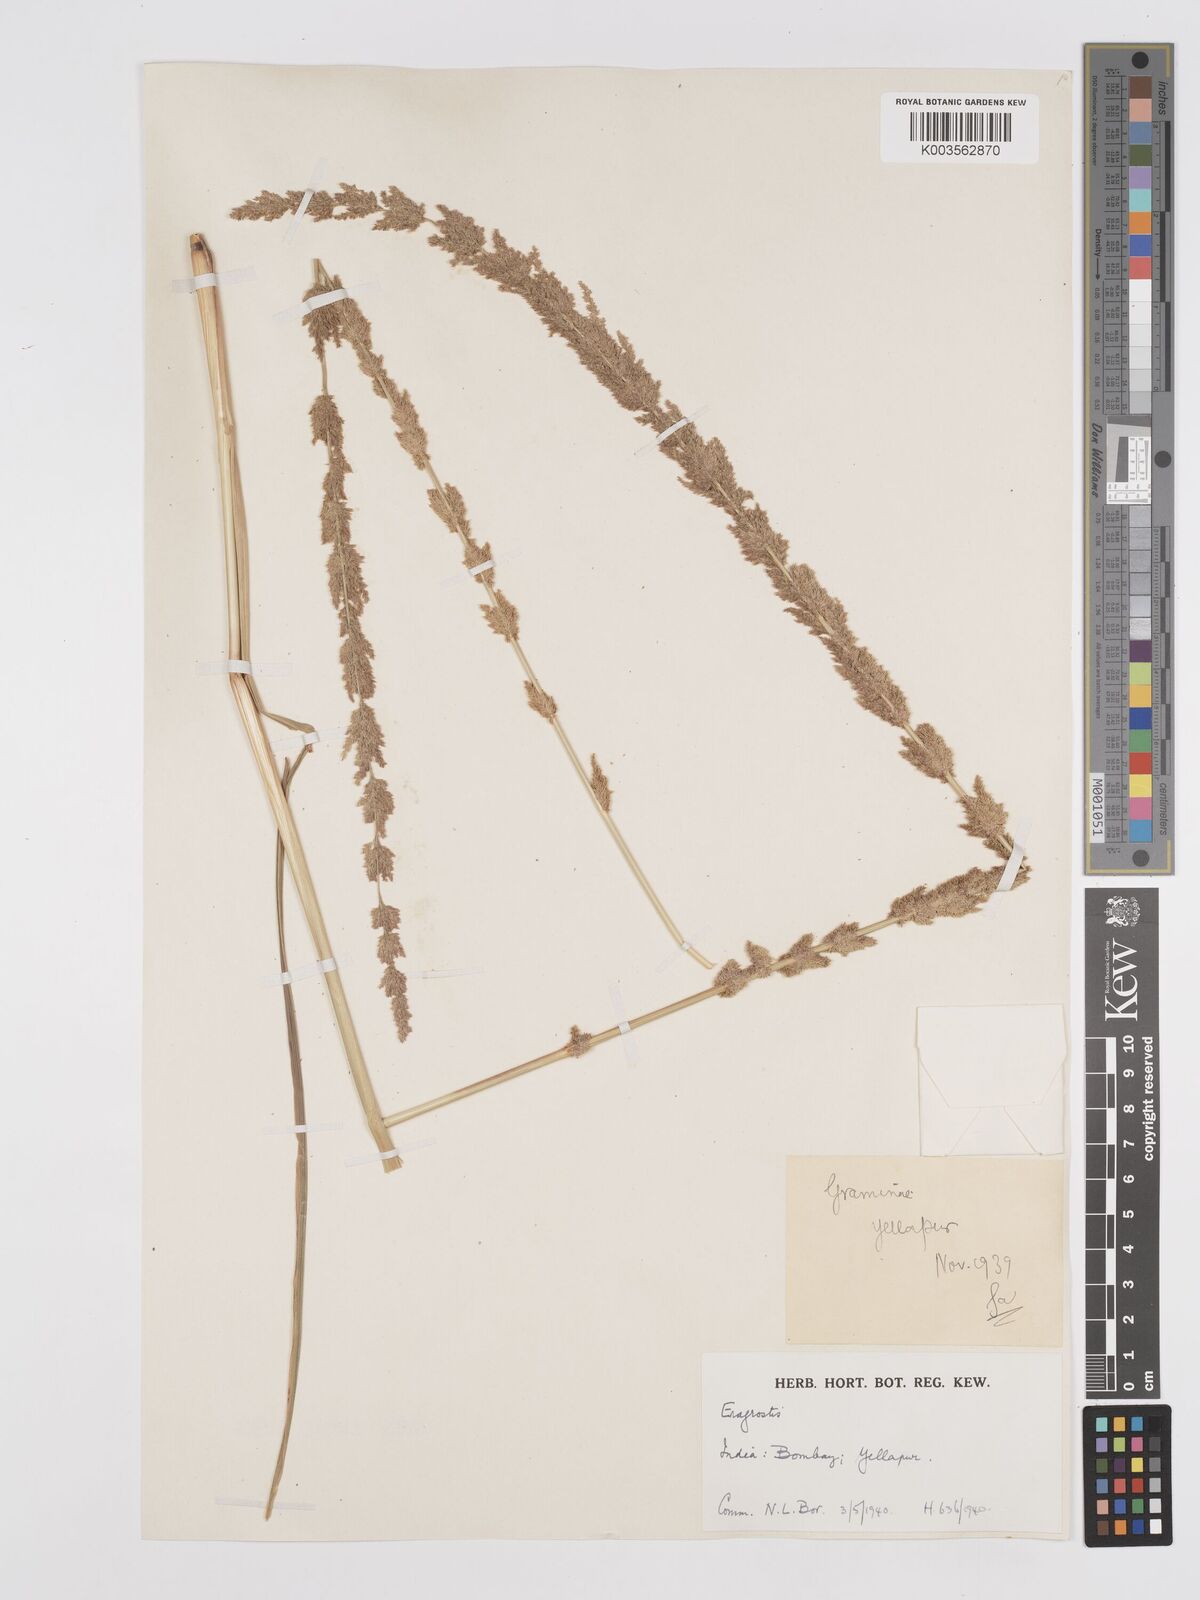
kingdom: Plantae
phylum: Tracheophyta
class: Liliopsida
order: Poales
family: Poaceae
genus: Eragrostis
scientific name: Eragrostis japonica
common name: Pond lovegrass
